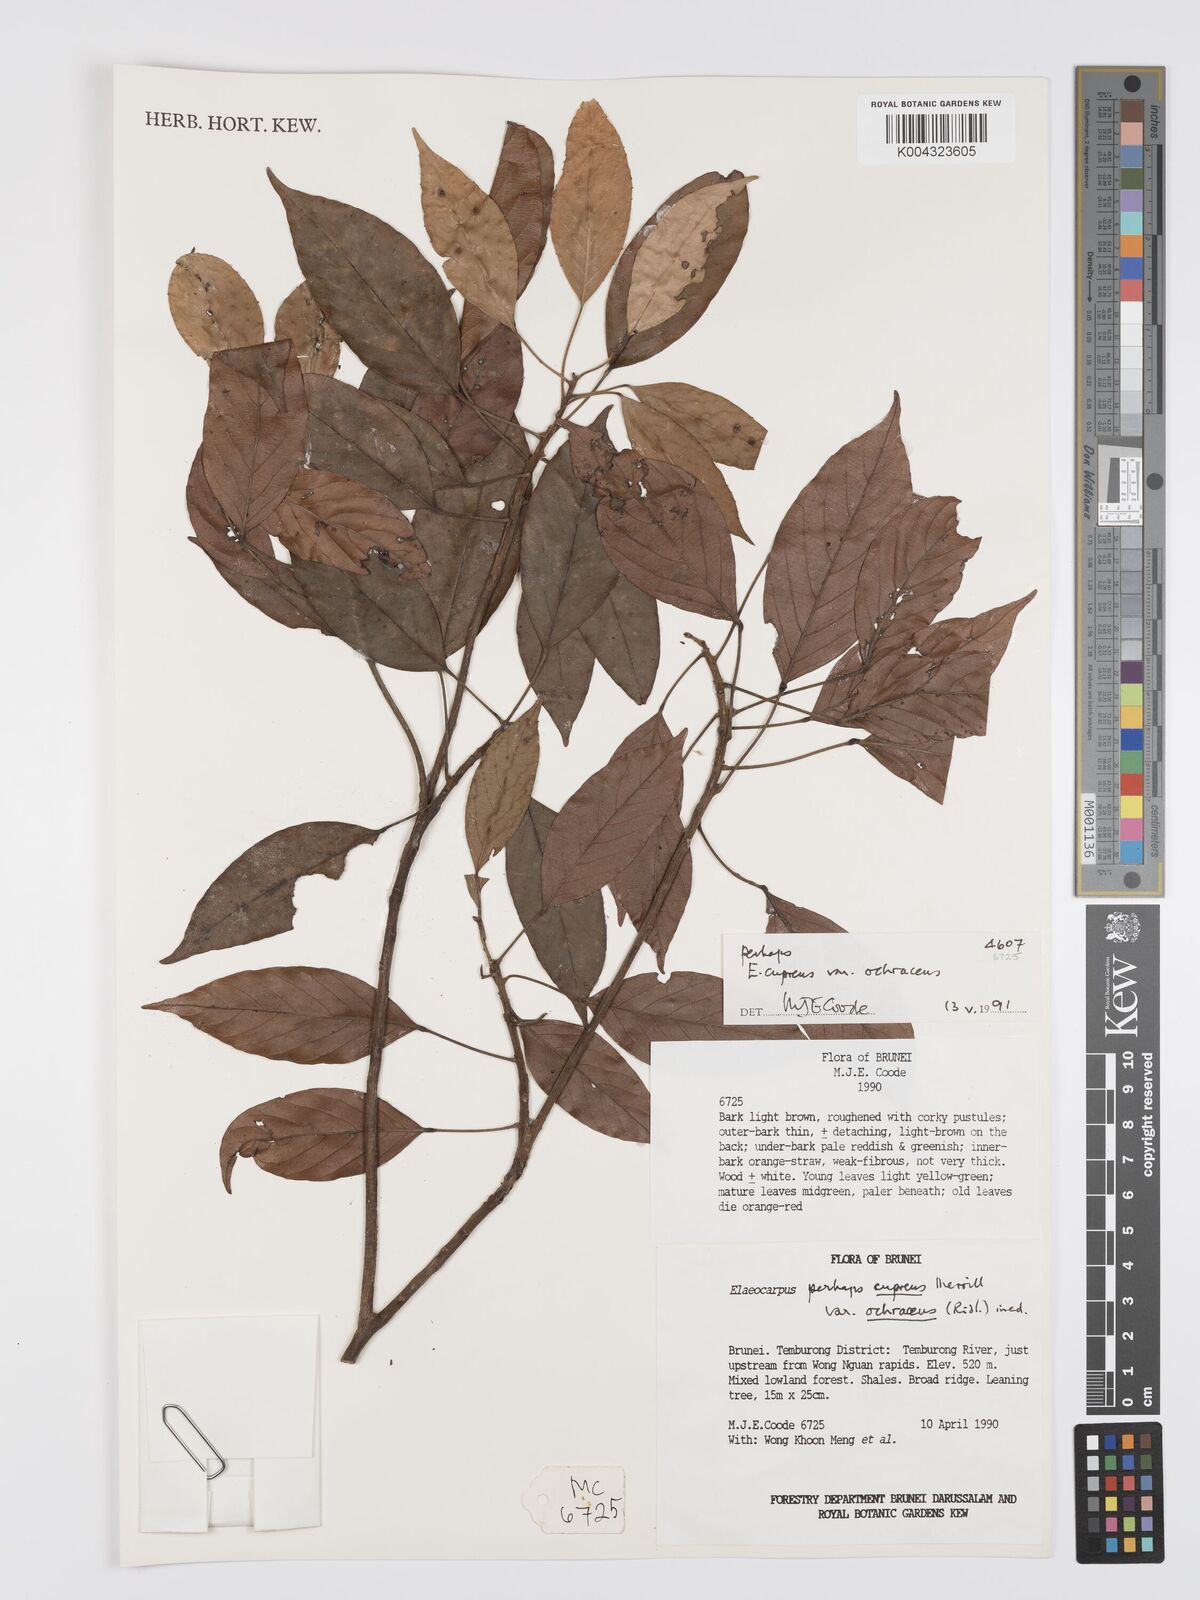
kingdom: Plantae
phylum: Tracheophyta
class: Magnoliopsida
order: Oxalidales
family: Elaeocarpaceae
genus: Elaeocarpus
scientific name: Elaeocarpus cupreus
